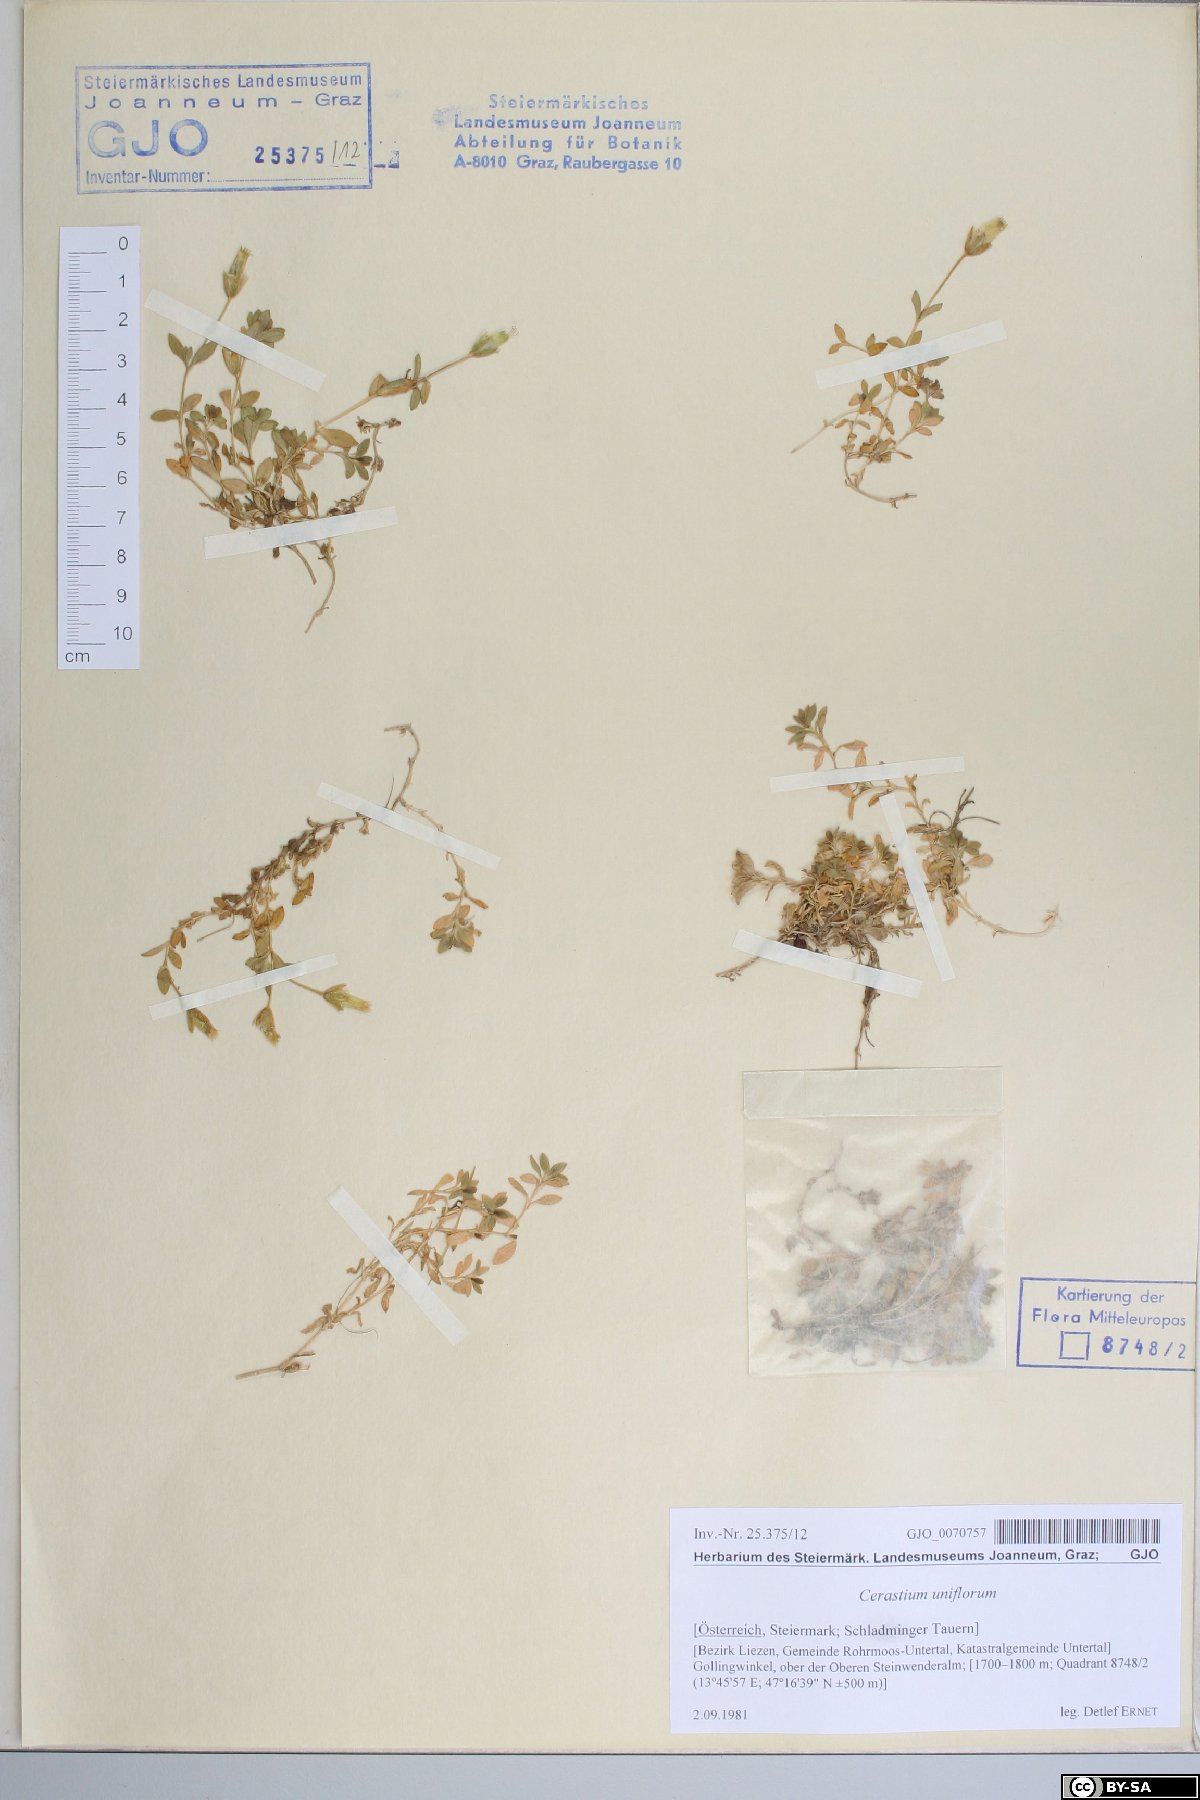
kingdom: Plantae
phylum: Tracheophyta
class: Magnoliopsida
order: Caryophyllales
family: Caryophyllaceae
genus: Cerastium
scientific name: Cerastium uniflorum
